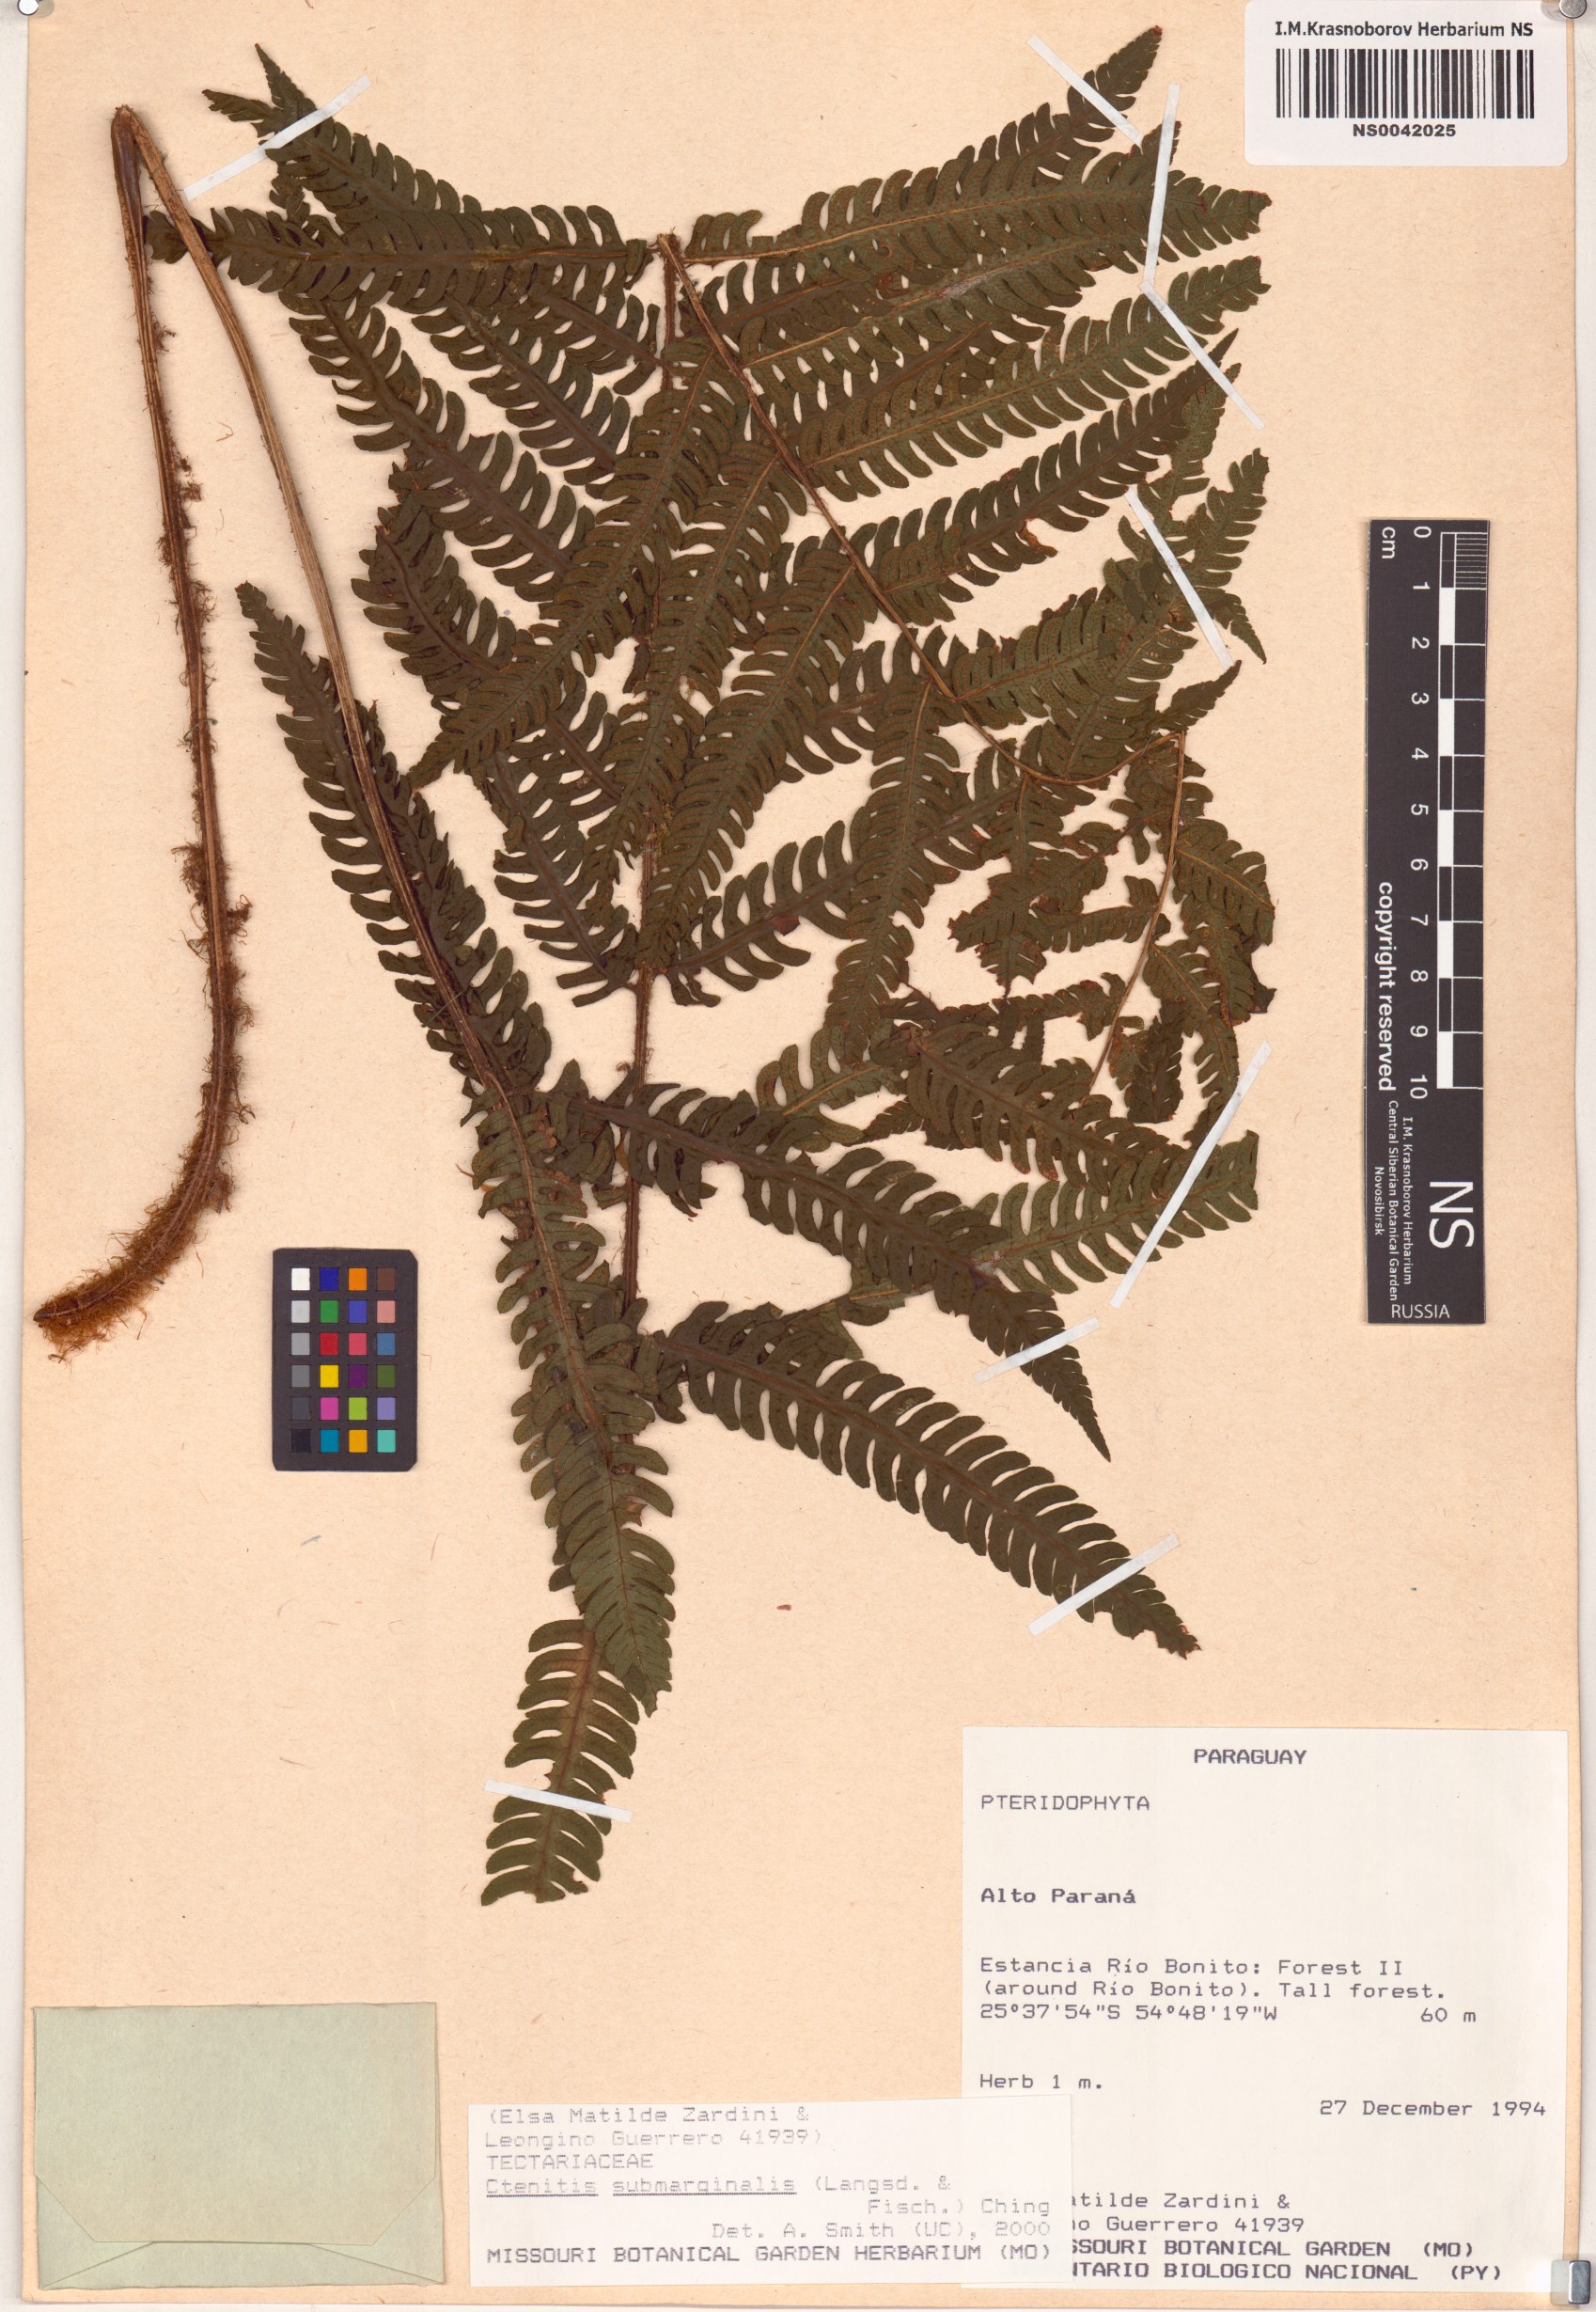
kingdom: Plantae
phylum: Tracheophyta
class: Polypodiopsida
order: Polypodiales
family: Dryopteridaceae
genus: Ctenitis
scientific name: Ctenitis submarginalis
